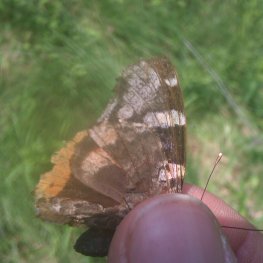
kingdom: Animalia
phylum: Arthropoda
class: Insecta
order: Lepidoptera
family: Nymphalidae
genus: Vanessa
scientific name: Vanessa atalanta
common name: Red Admiral
